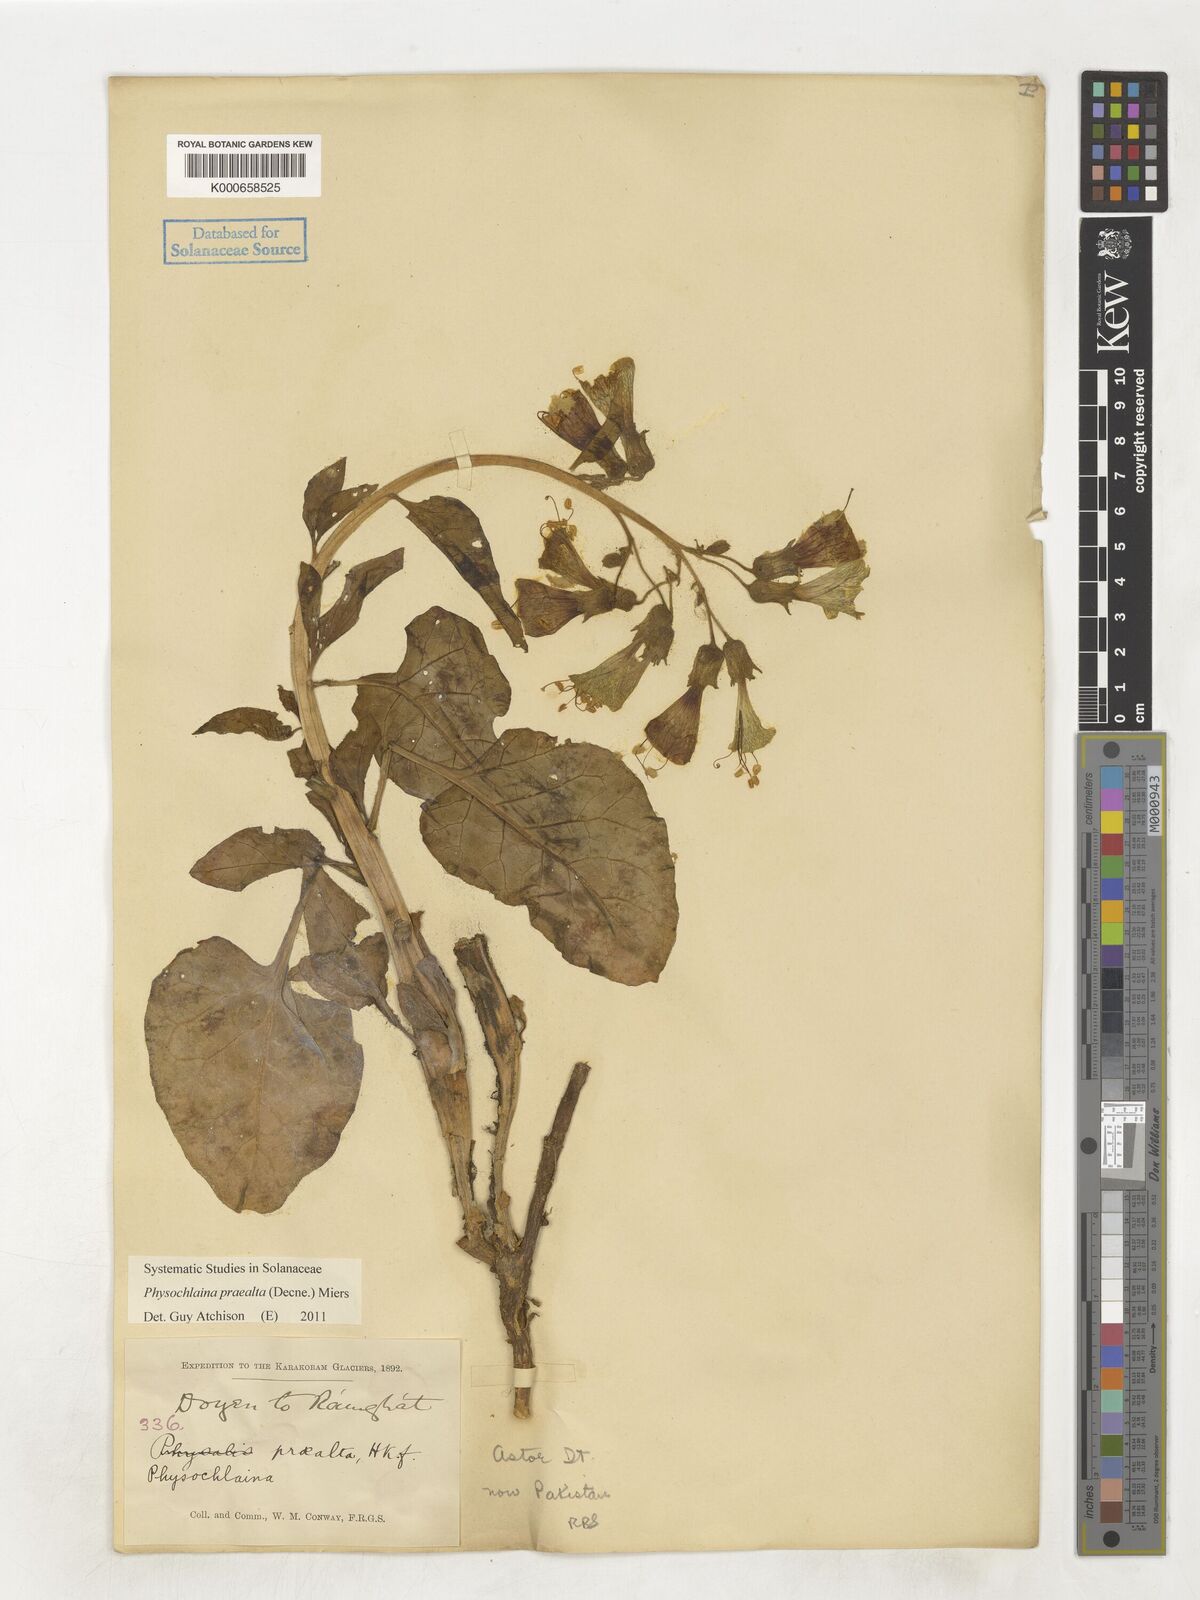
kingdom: Plantae
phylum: Tracheophyta
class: Magnoliopsida
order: Solanales
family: Solanaceae
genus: Physochlaina
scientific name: Physochlaina praealta
